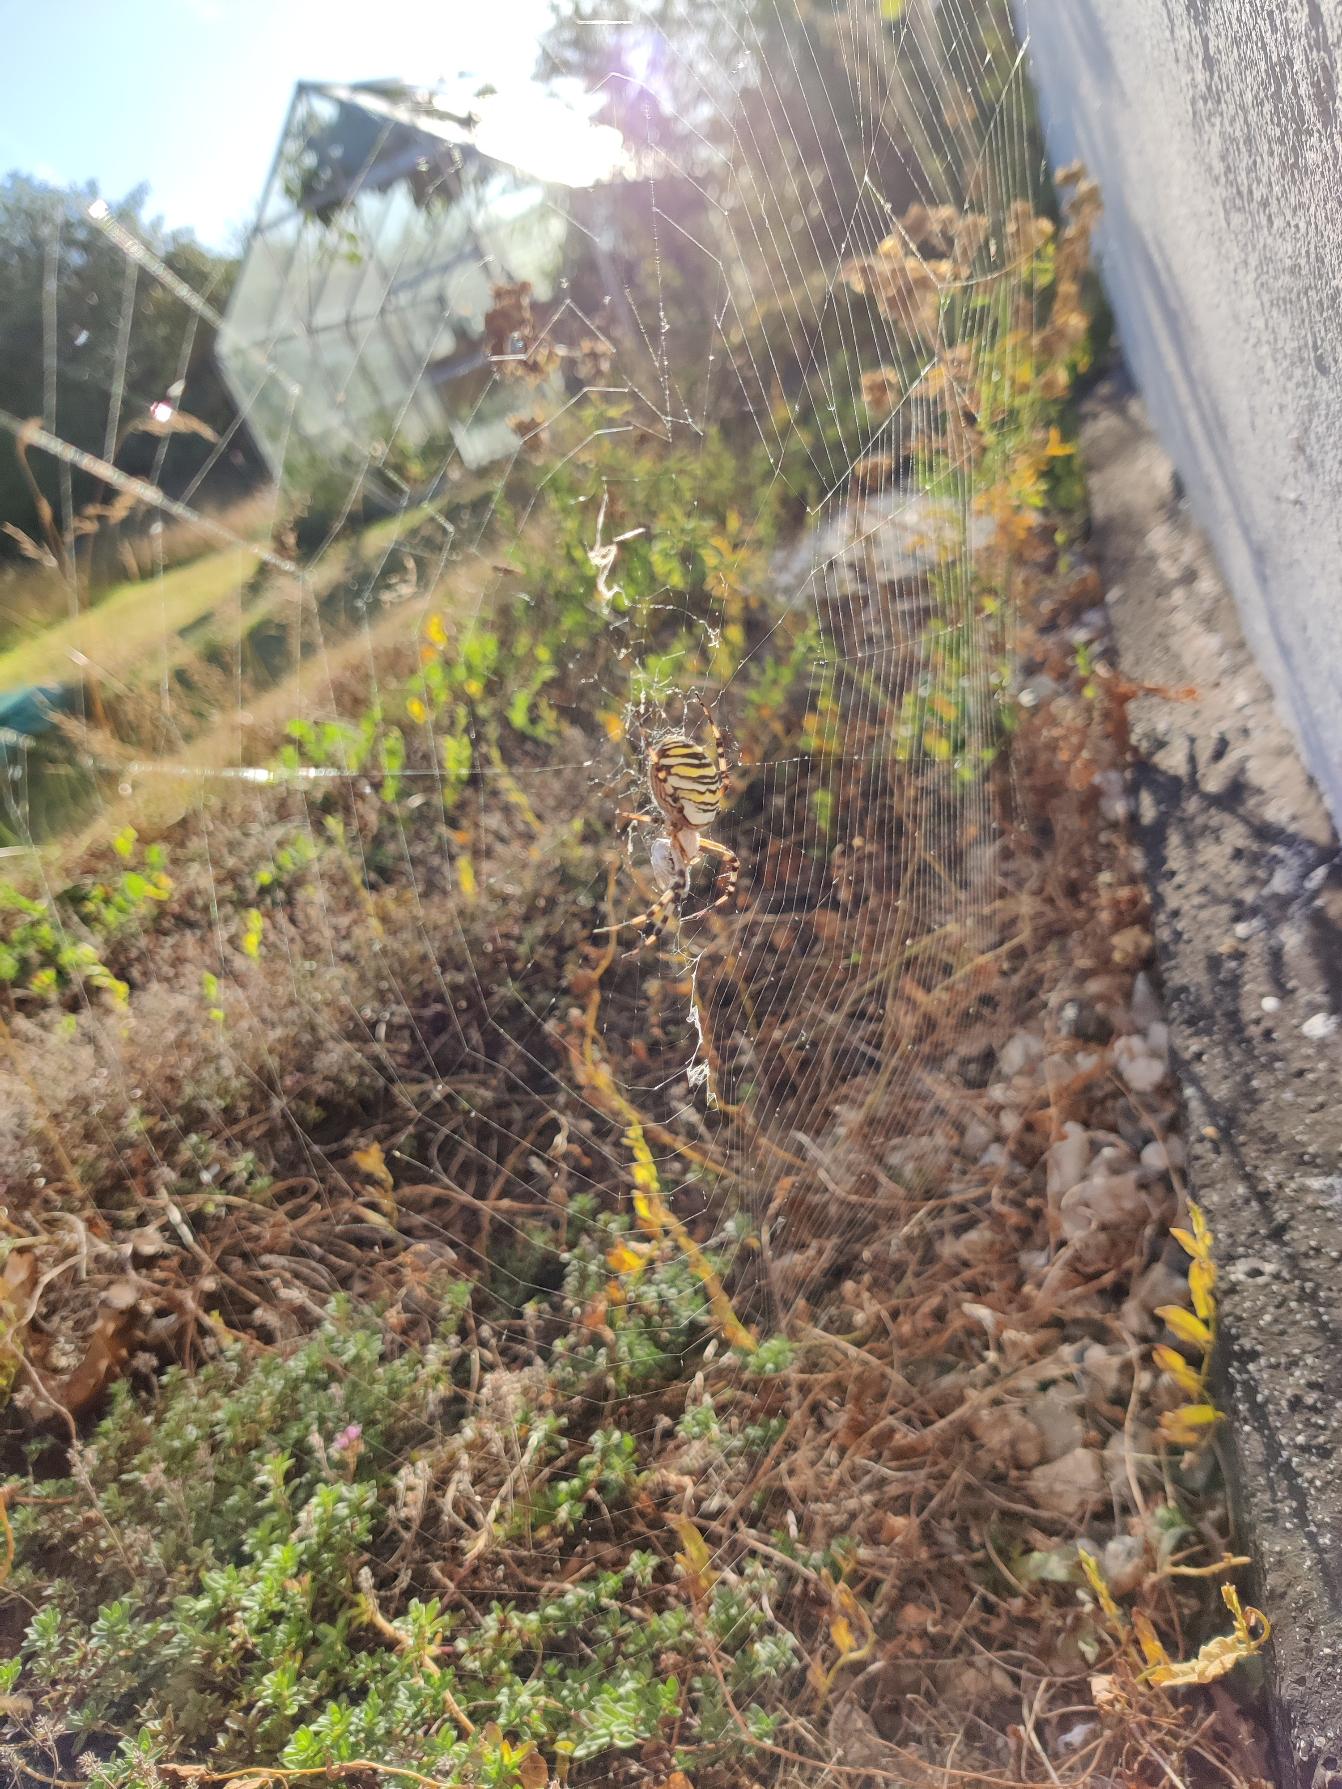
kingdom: Animalia
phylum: Arthropoda
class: Arachnida
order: Araneae
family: Araneidae
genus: Argiope
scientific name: Argiope bruennichi
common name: Hvepseedderkop
